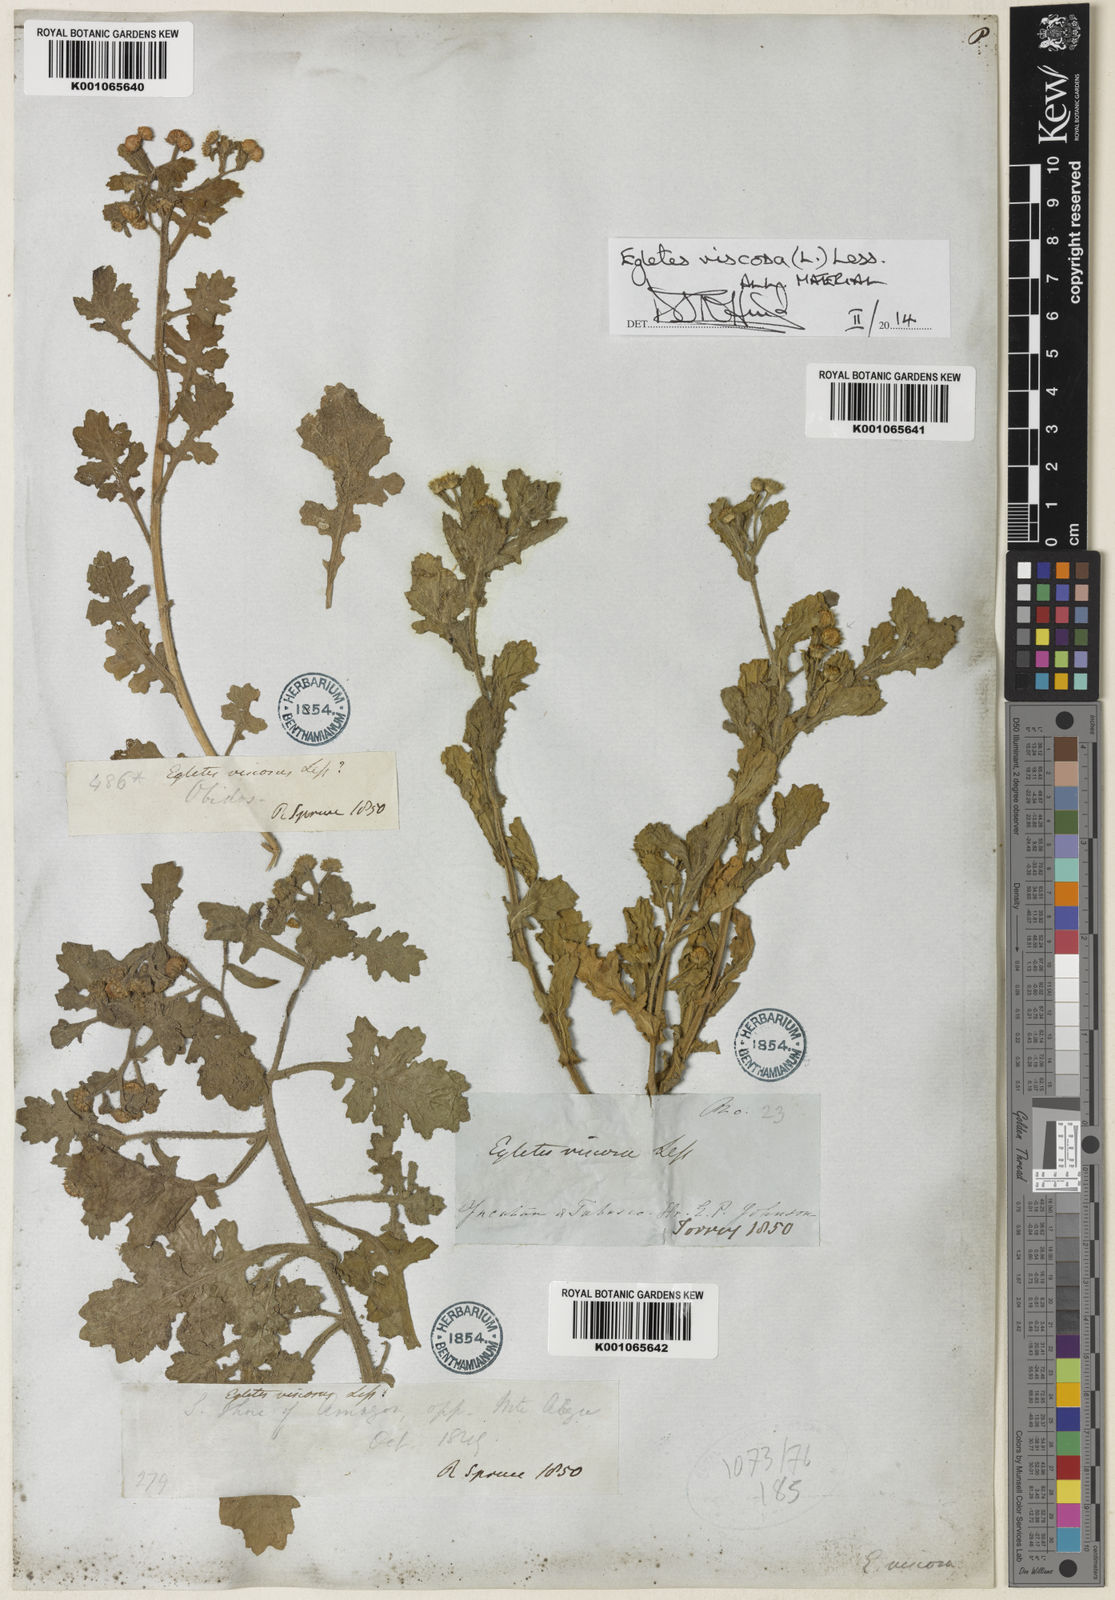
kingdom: Plantae
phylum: Tracheophyta
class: Magnoliopsida
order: Asterales
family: Asteraceae
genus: Egletes
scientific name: Egletes viscosa
